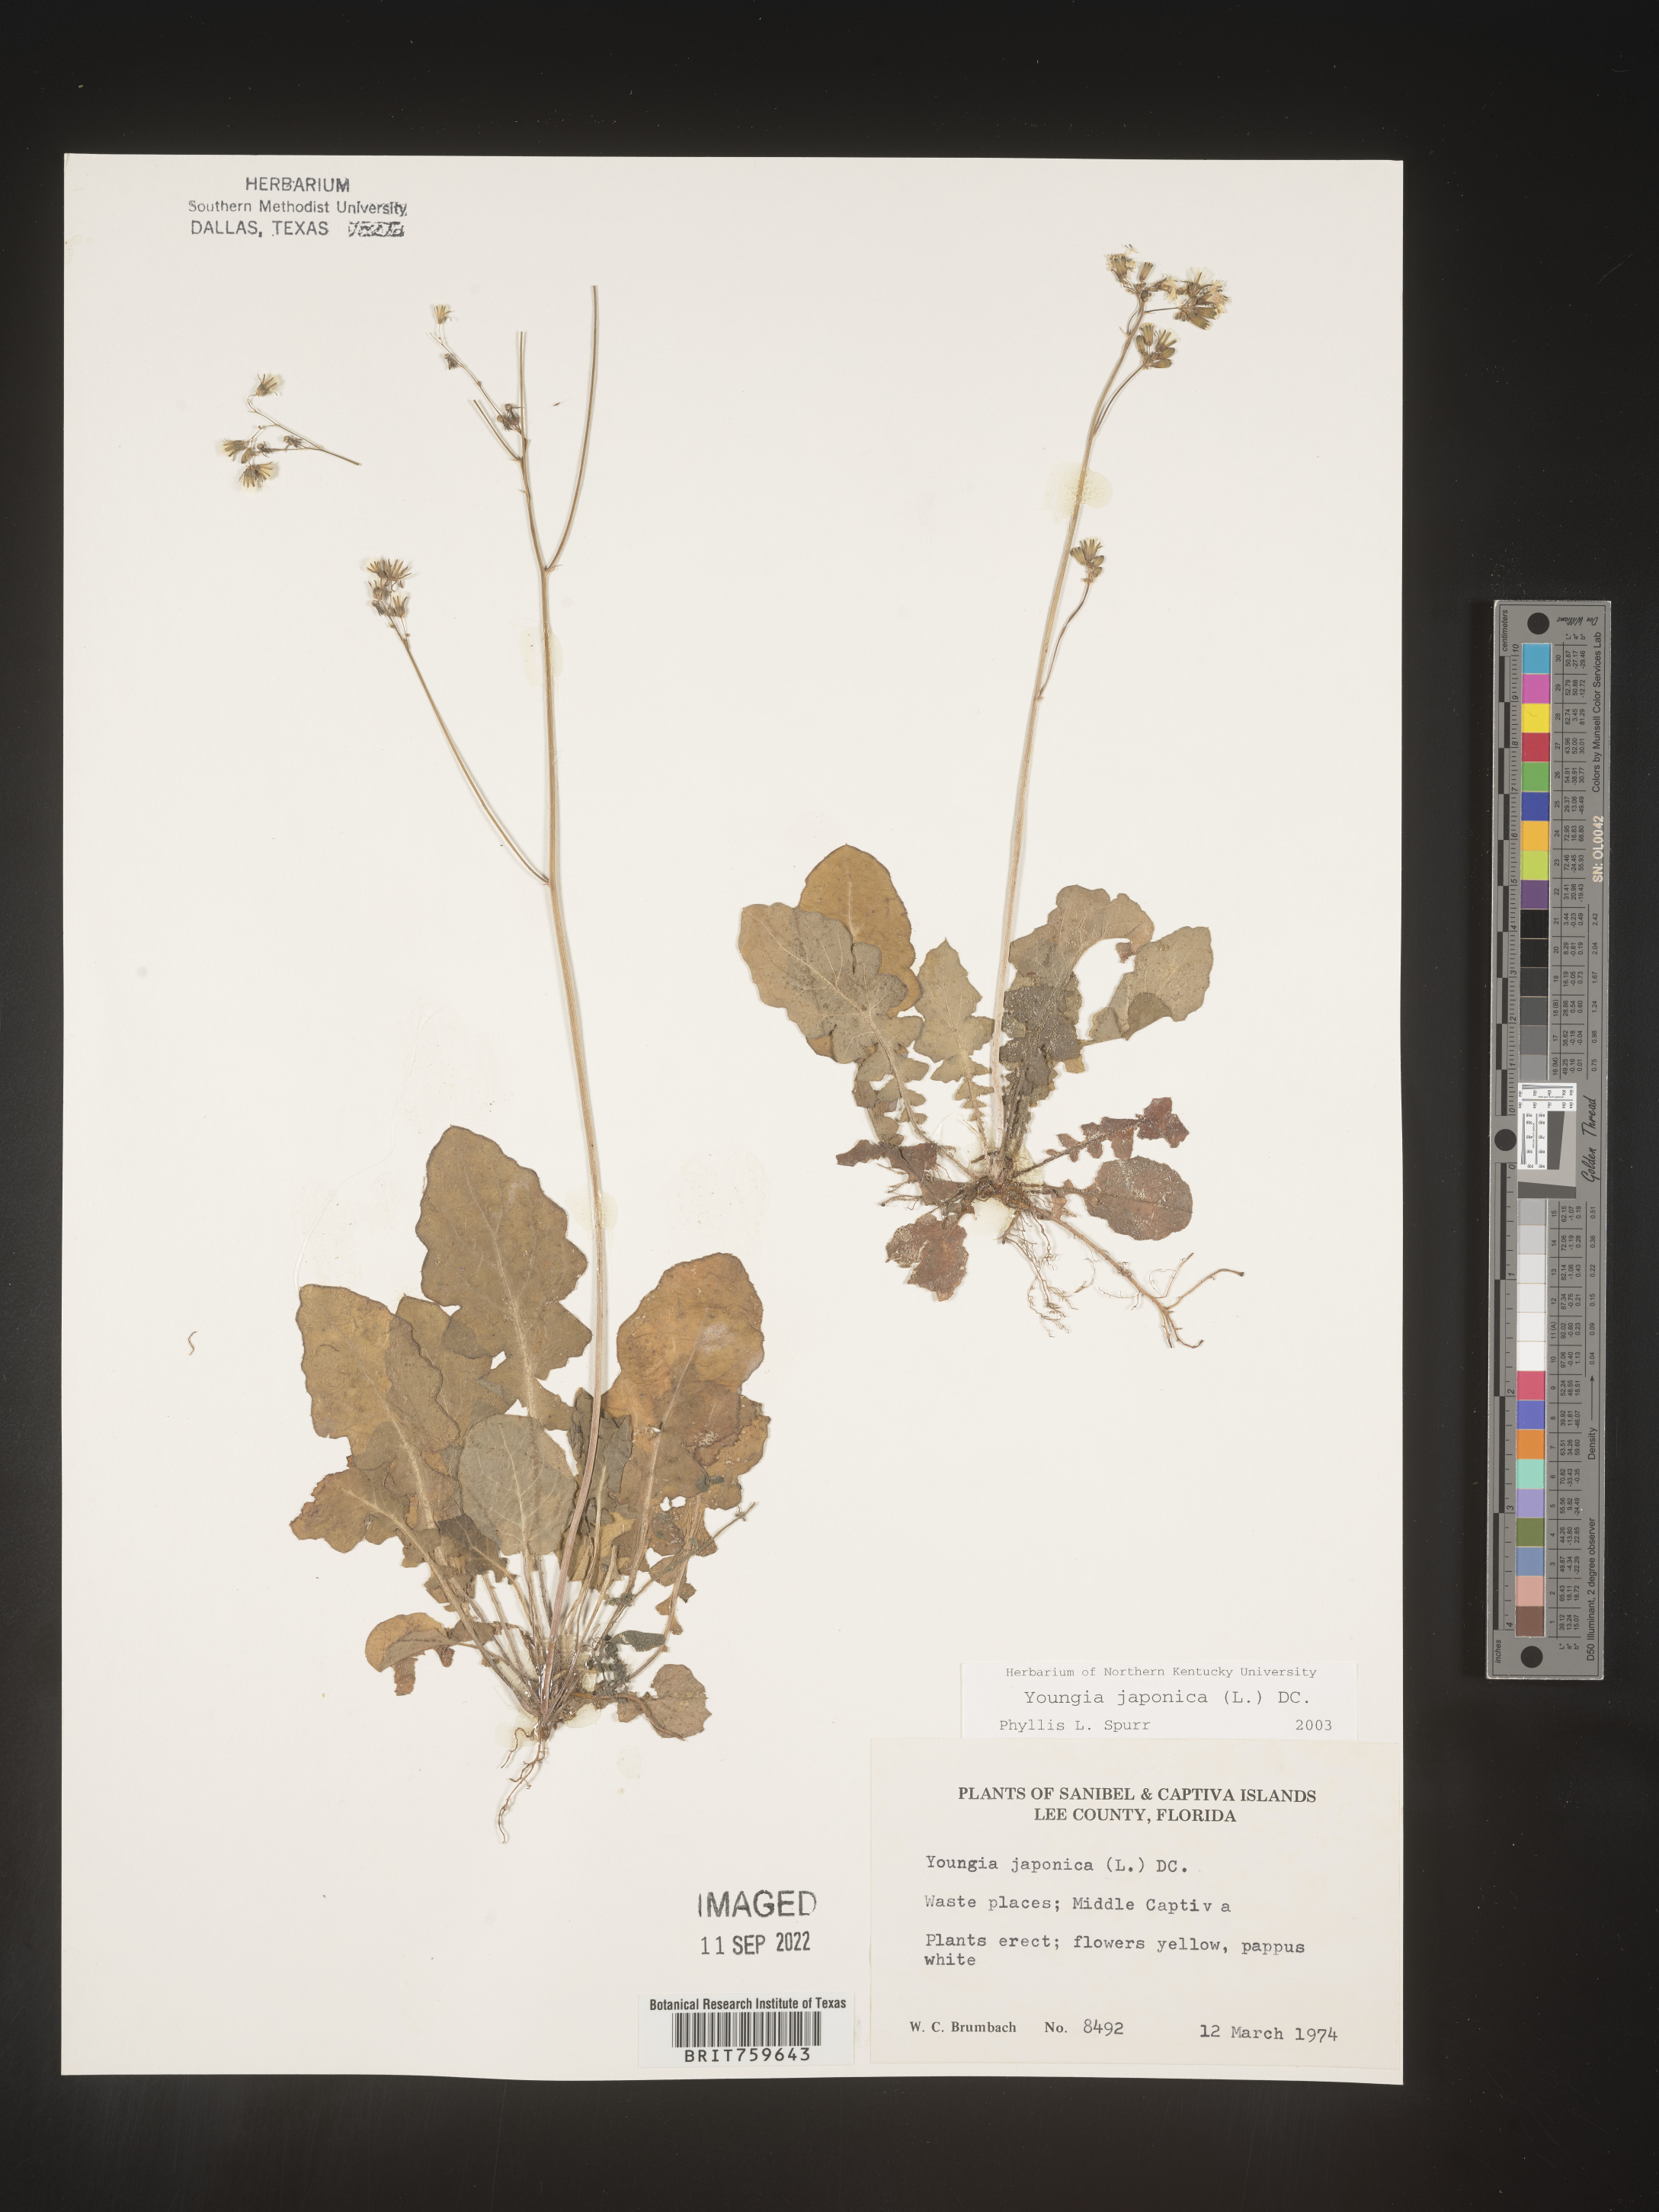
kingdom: Plantae
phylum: Tracheophyta
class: Magnoliopsida
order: Asterales
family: Asteraceae
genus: Youngia
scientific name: Youngia japonica
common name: Oriental false hawksbeard
